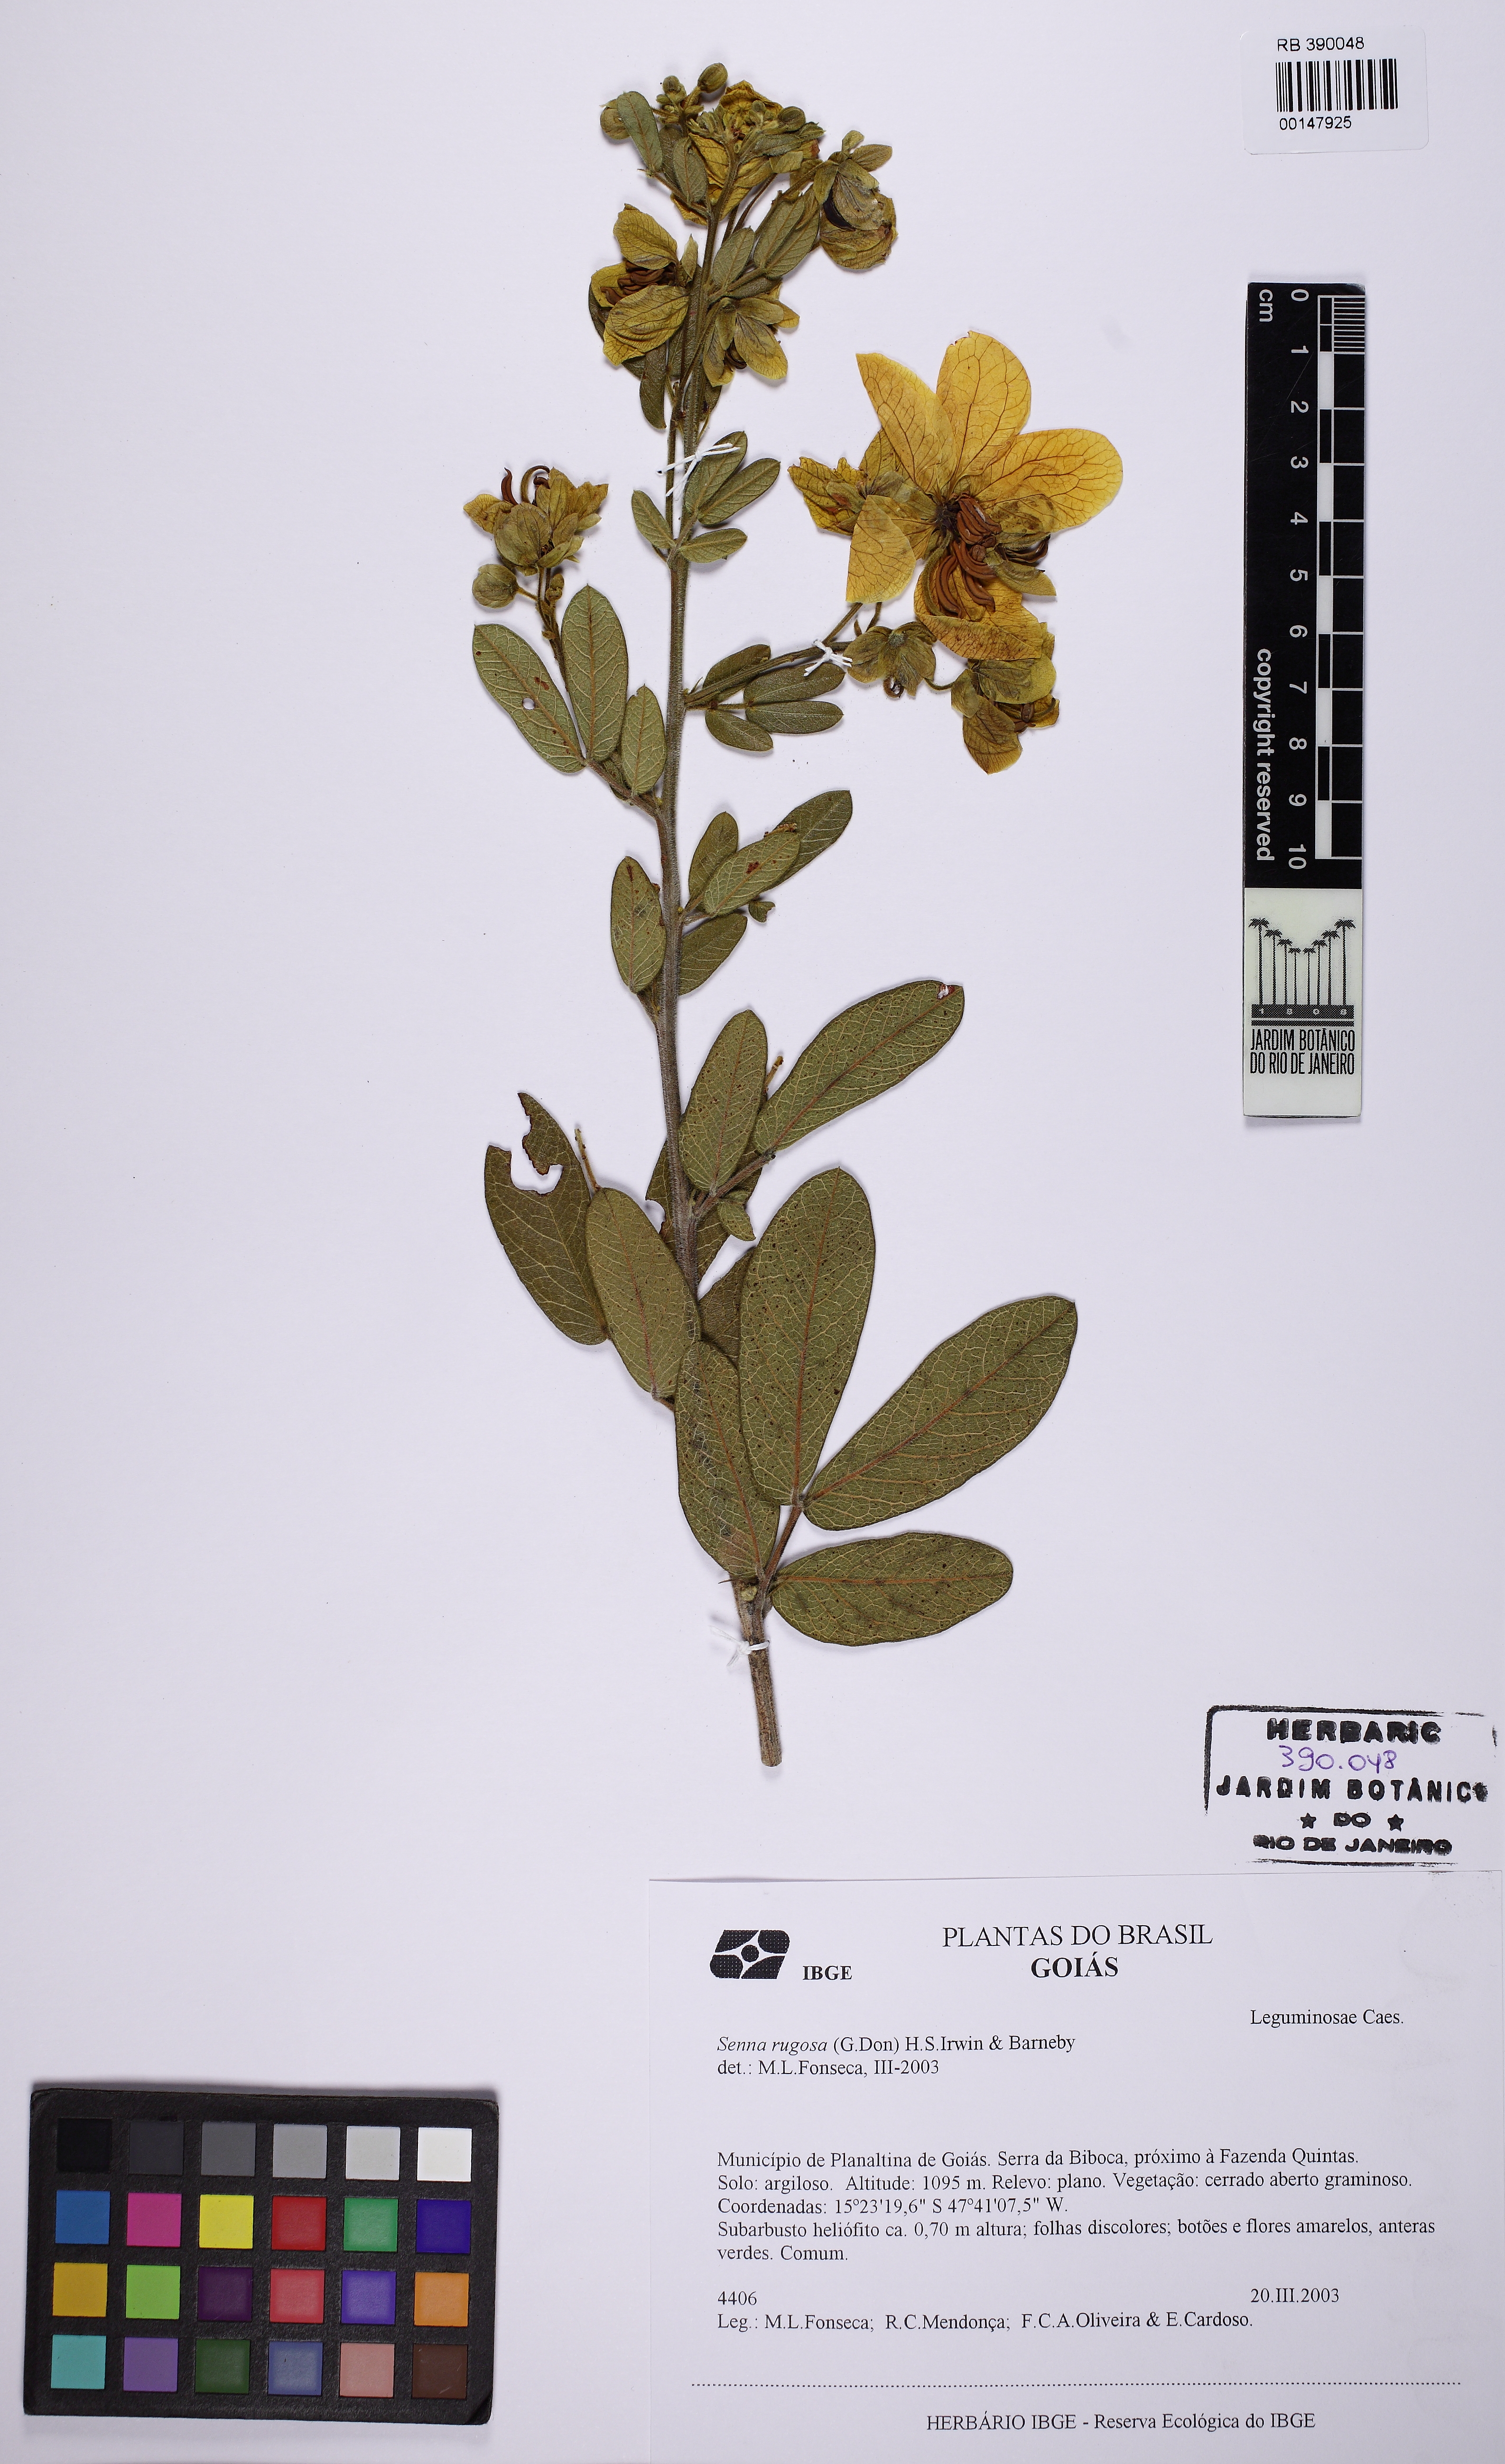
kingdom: Plantae
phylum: Tracheophyta
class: Magnoliopsida
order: Fabales
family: Fabaceae
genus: Senna
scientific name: Senna rugosa
